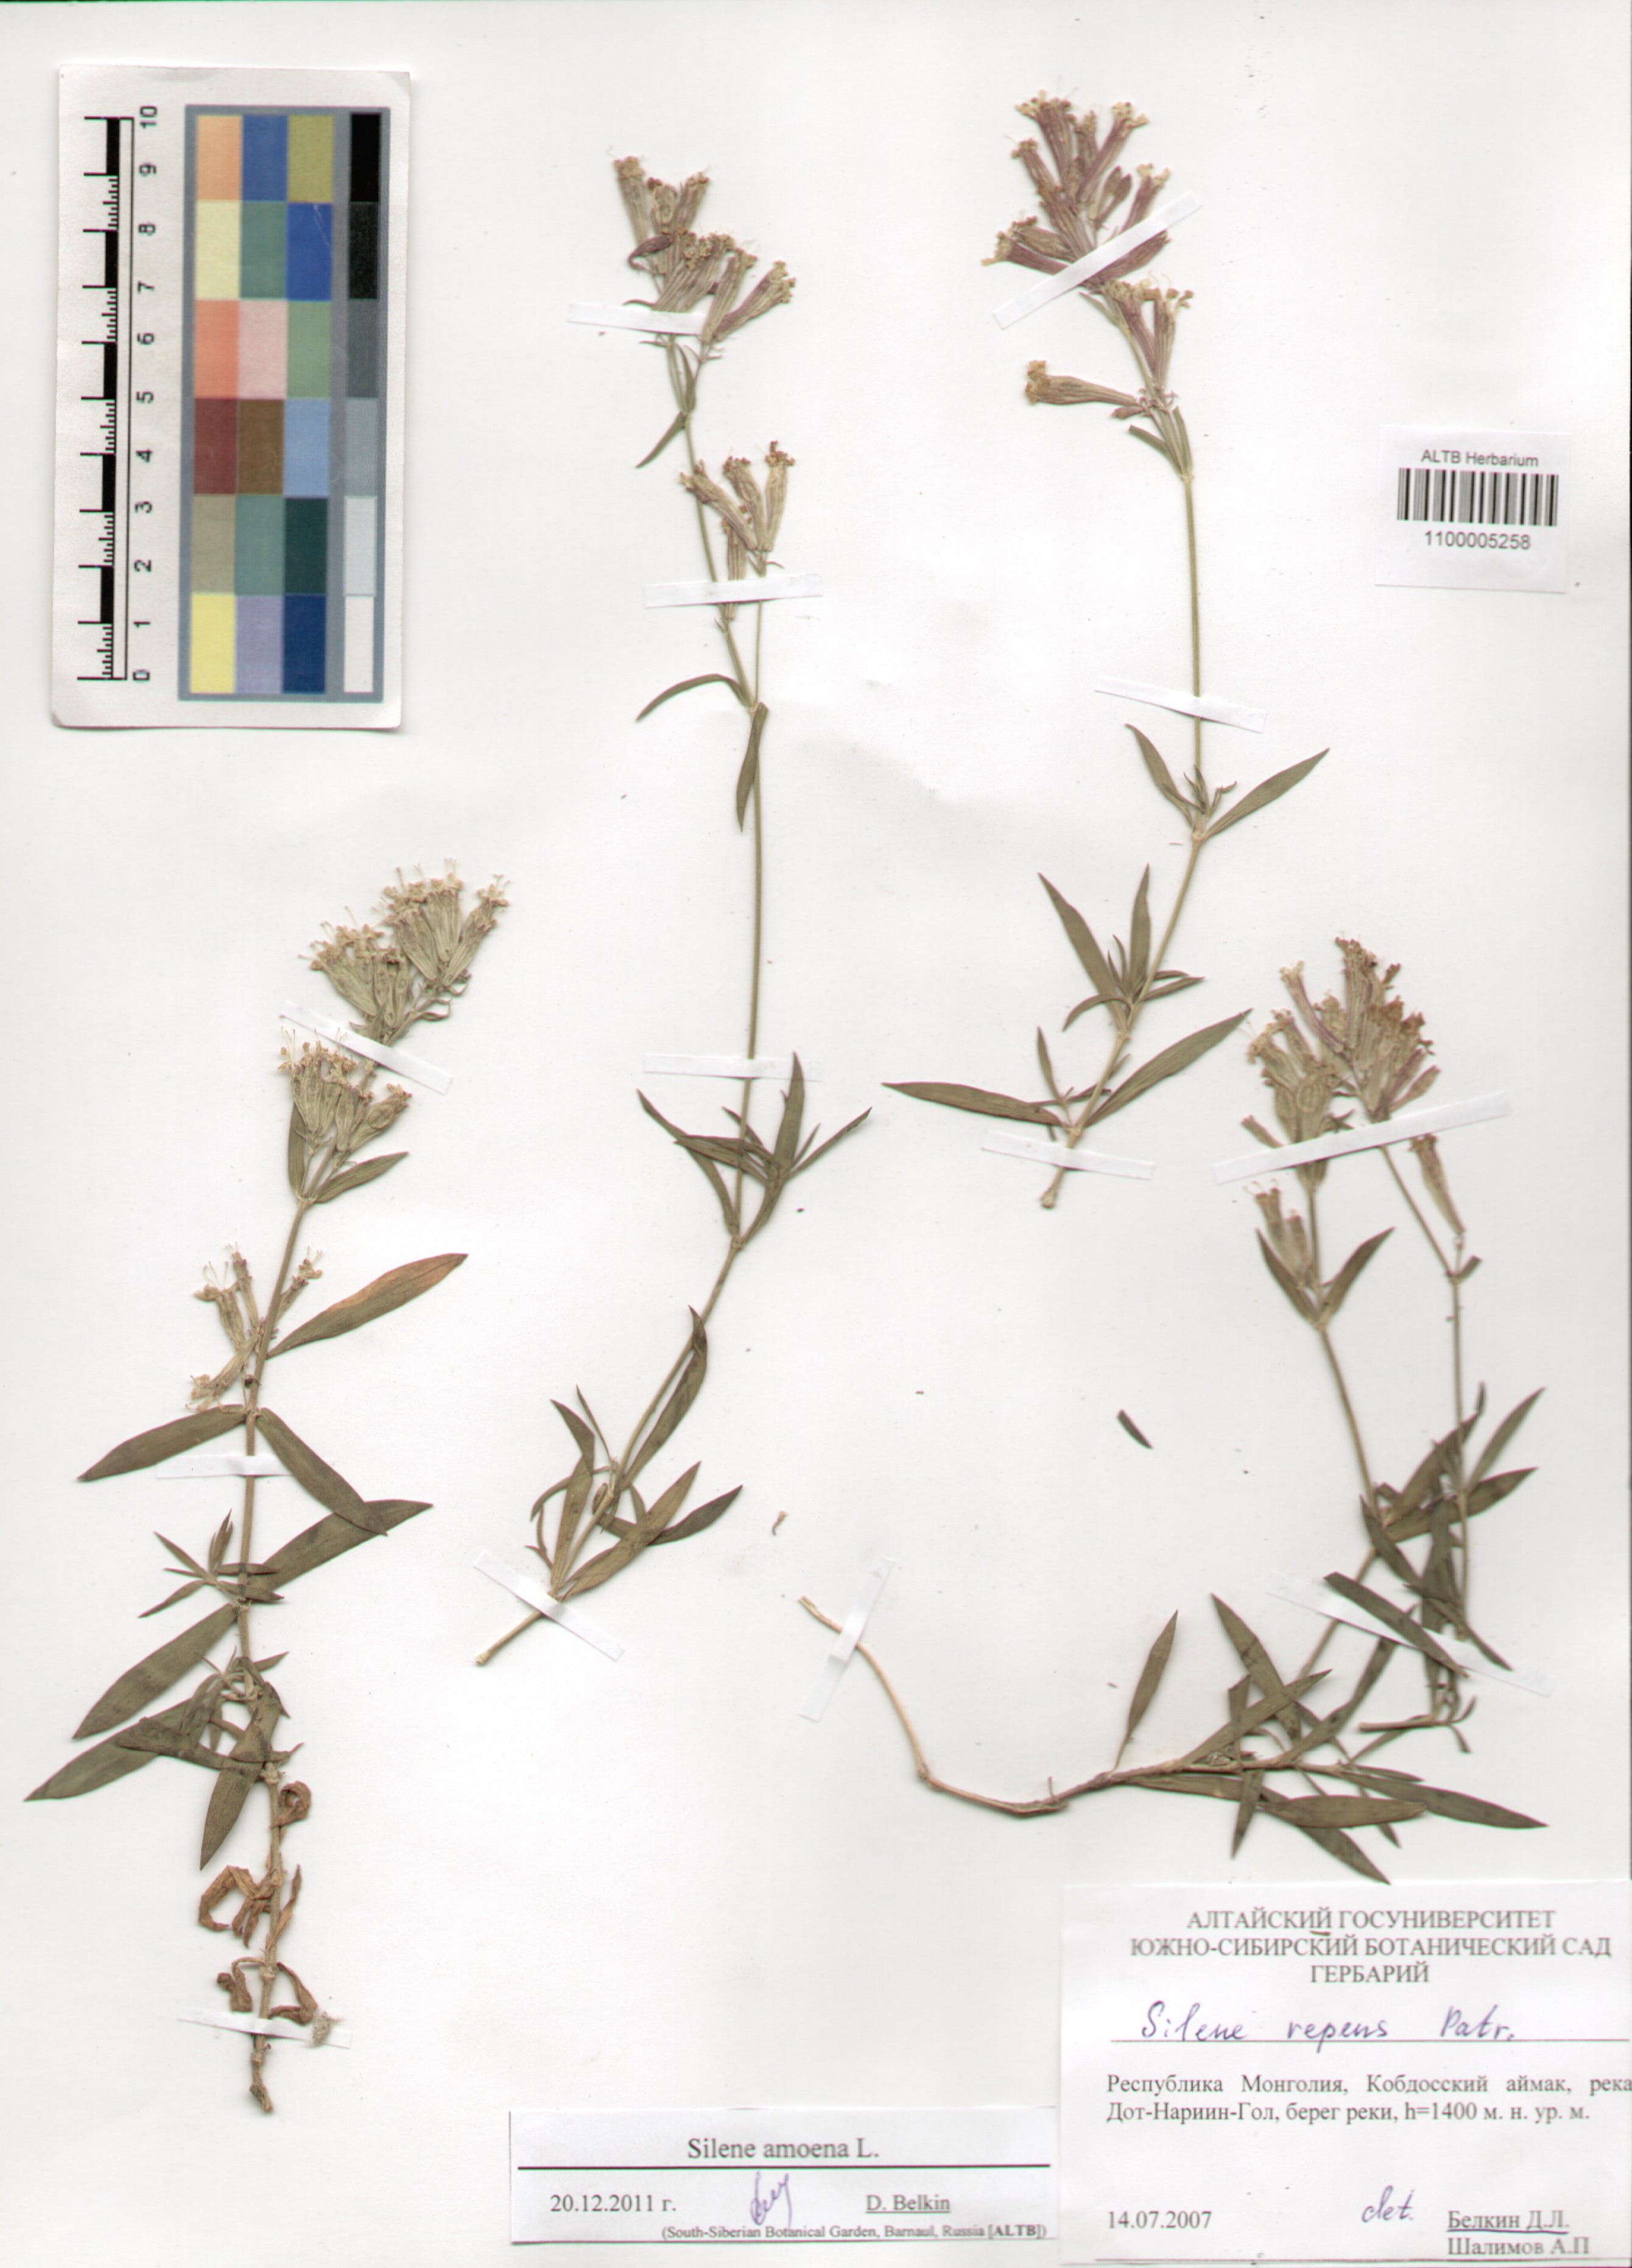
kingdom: Plantae
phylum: Tracheophyta
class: Magnoliopsida
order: Caryophyllales
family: Caryophyllaceae
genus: Silene
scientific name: Silene amoena
